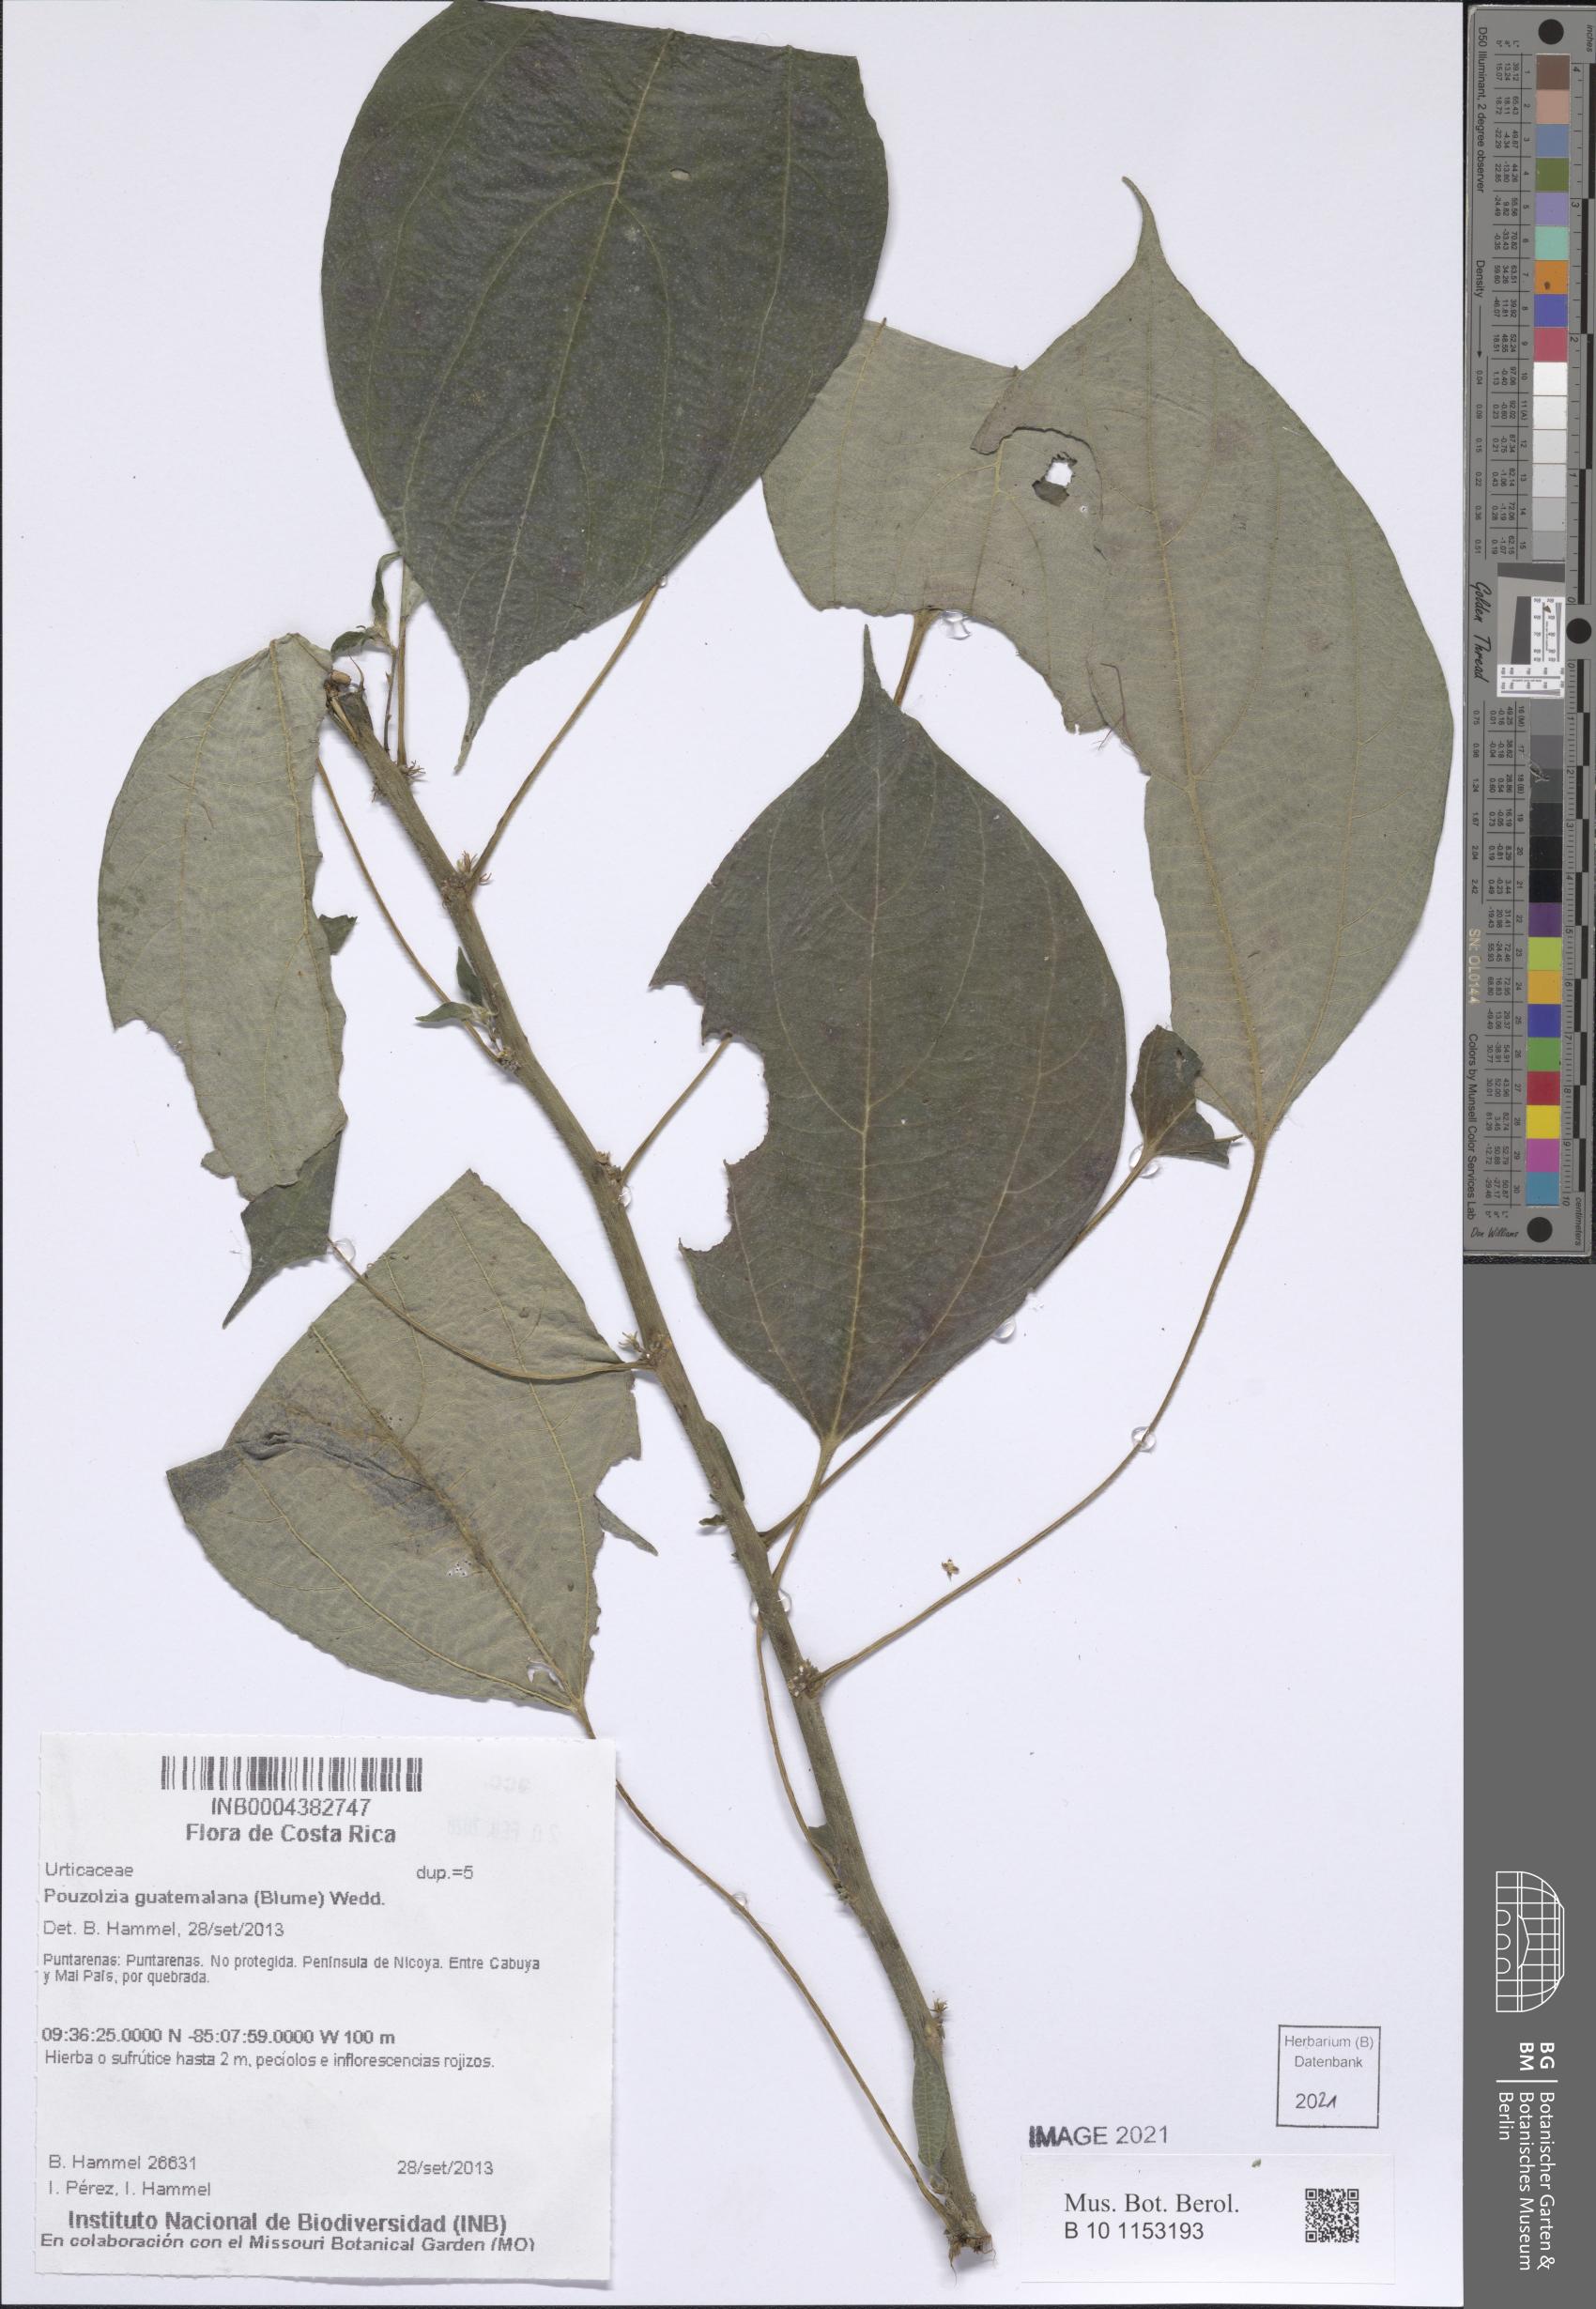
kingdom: Plantae
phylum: Tracheophyta
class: Magnoliopsida
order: Rosales
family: Urticaceae
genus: Pouzolzia
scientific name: Pouzolzia guatemalana
